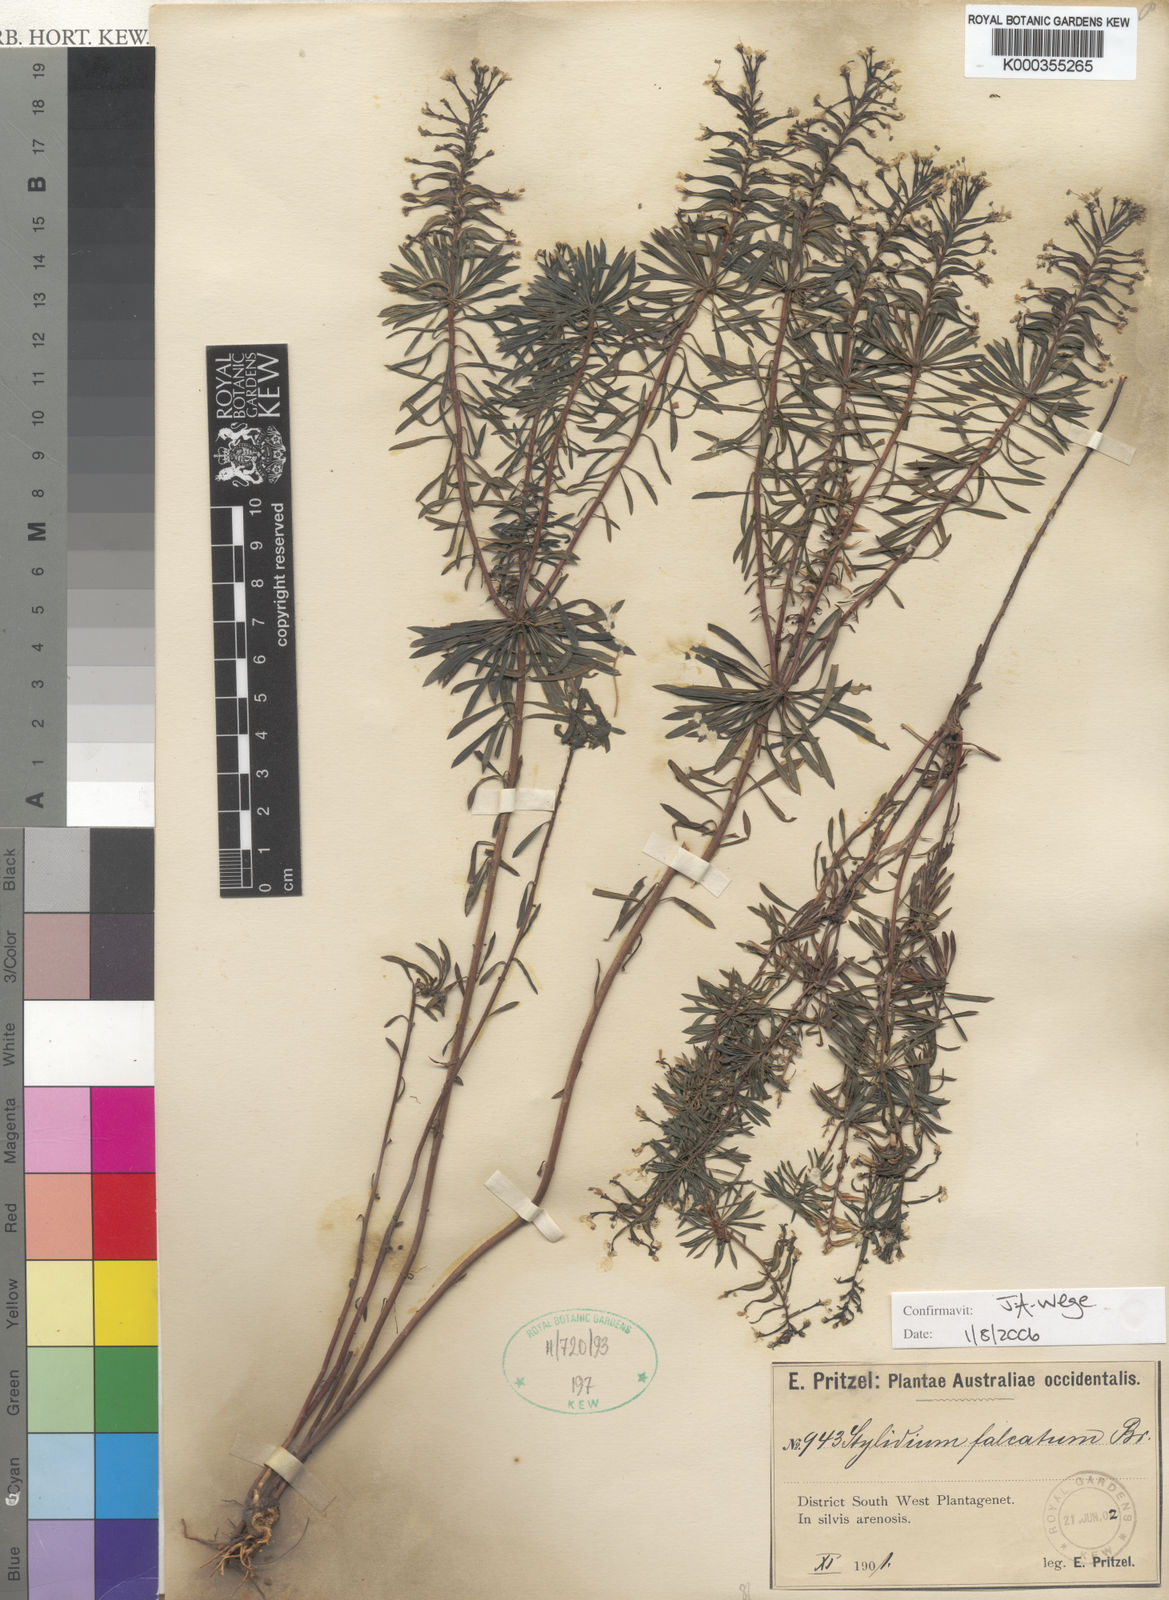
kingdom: Plantae
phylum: Tracheophyta
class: Magnoliopsida
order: Asterales
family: Stylidiaceae
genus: Stylidium
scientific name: Stylidium falcatum
